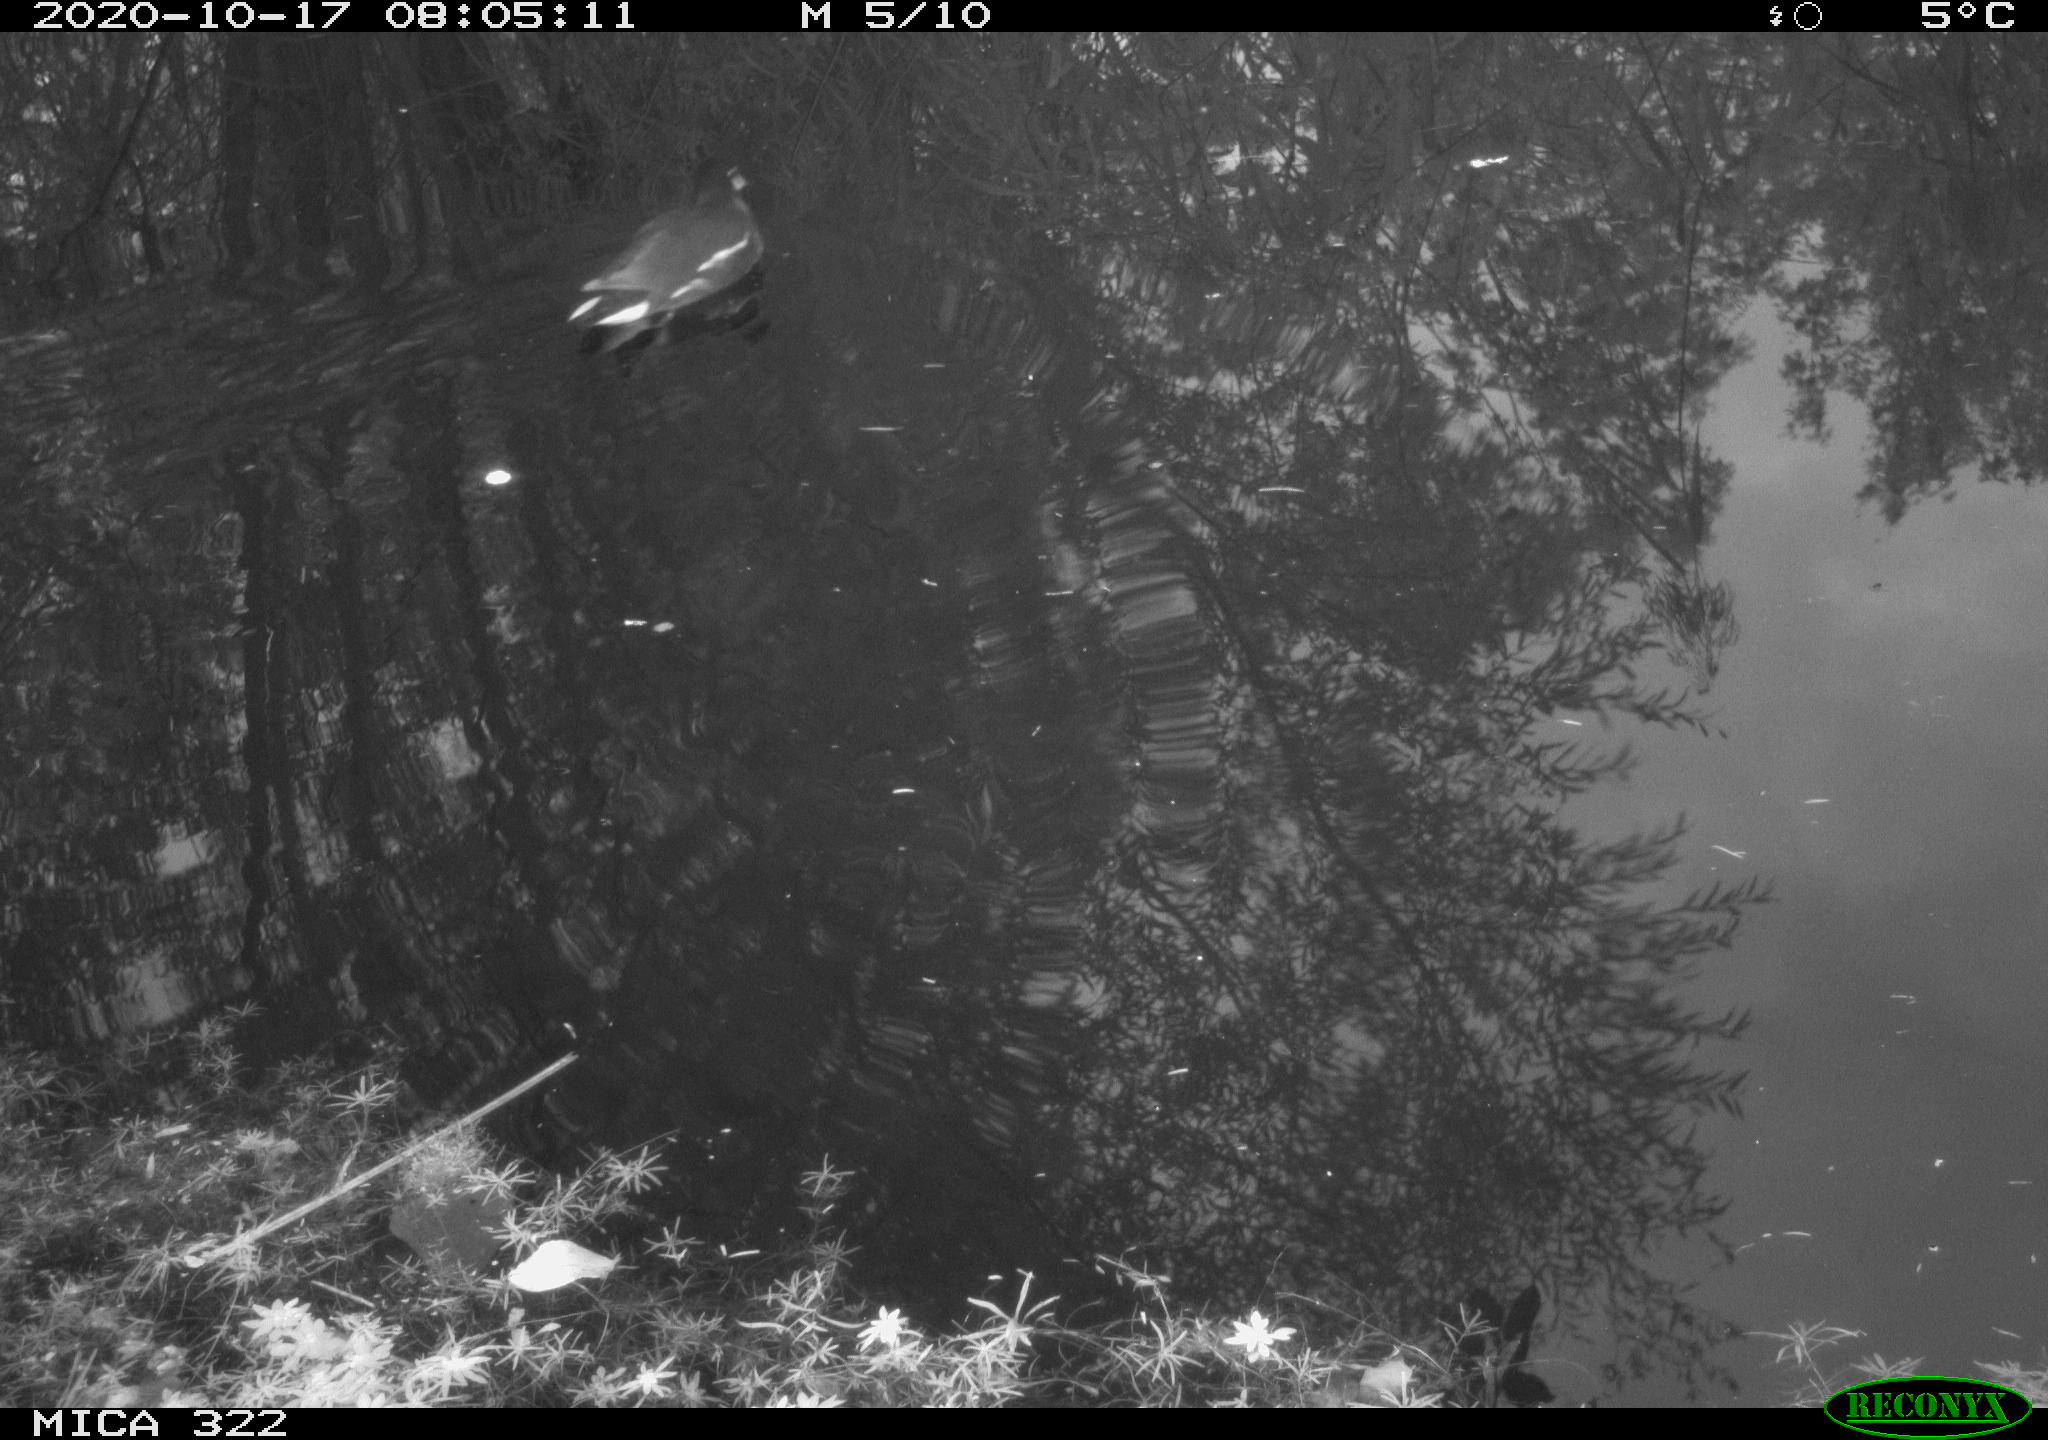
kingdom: Animalia
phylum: Chordata
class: Aves
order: Gruiformes
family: Rallidae
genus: Gallinula
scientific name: Gallinula chloropus
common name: Common moorhen
